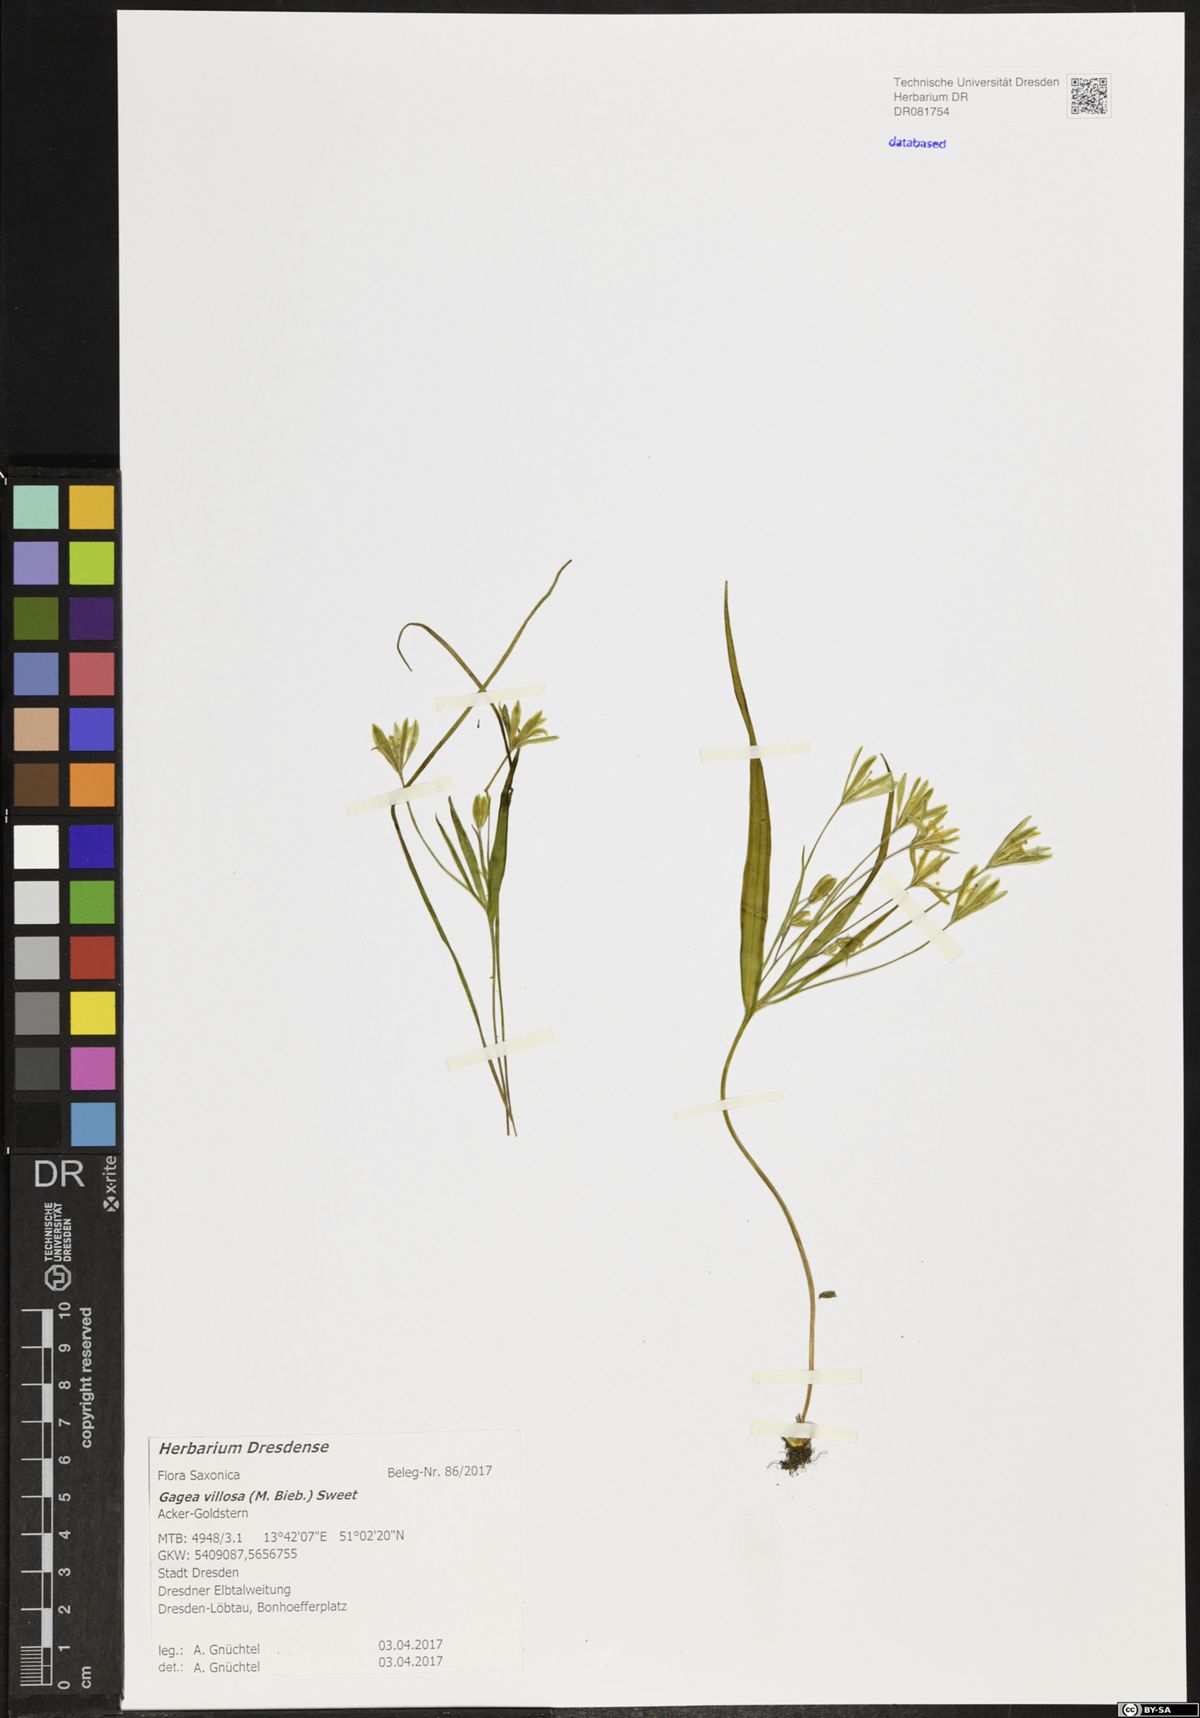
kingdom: Plantae
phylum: Tracheophyta
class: Liliopsida
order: Liliales
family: Liliaceae
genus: Gagea
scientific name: Gagea villosa
